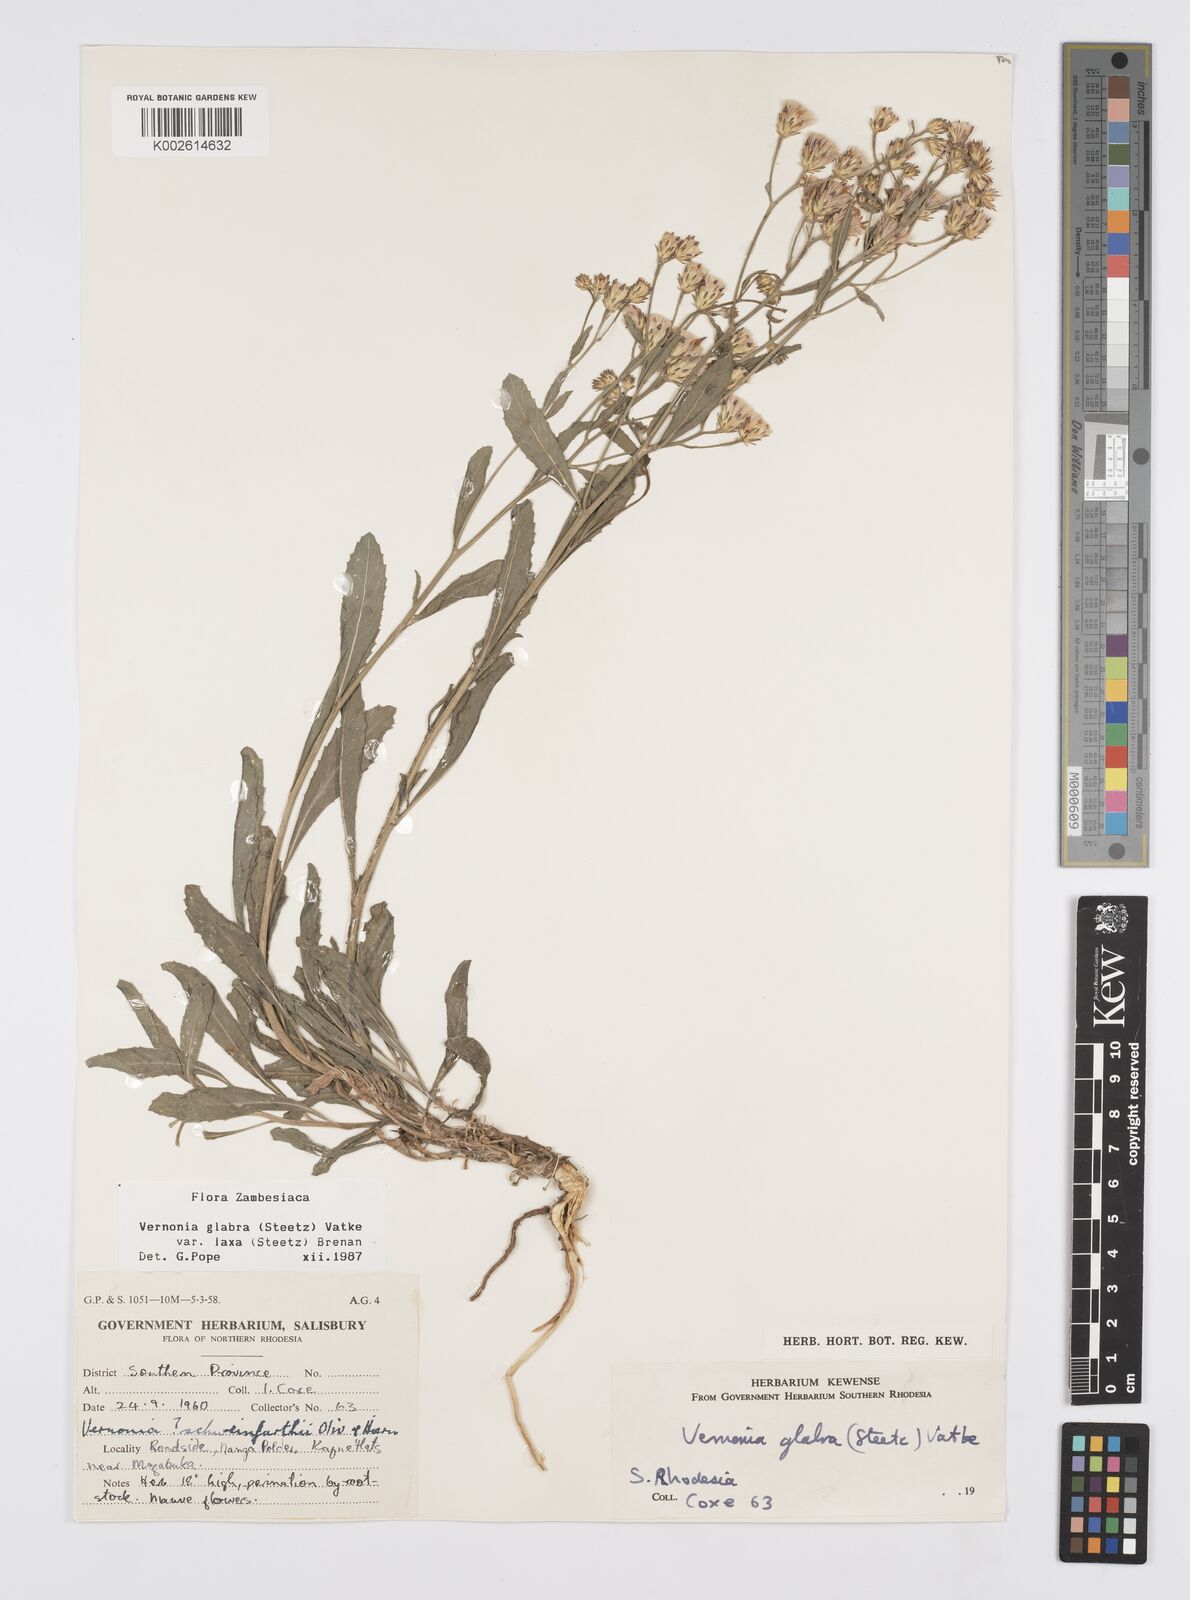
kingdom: Plantae
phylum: Tracheophyta
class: Magnoliopsida
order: Asterales
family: Asteraceae
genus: Linzia
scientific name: Linzia glabra
